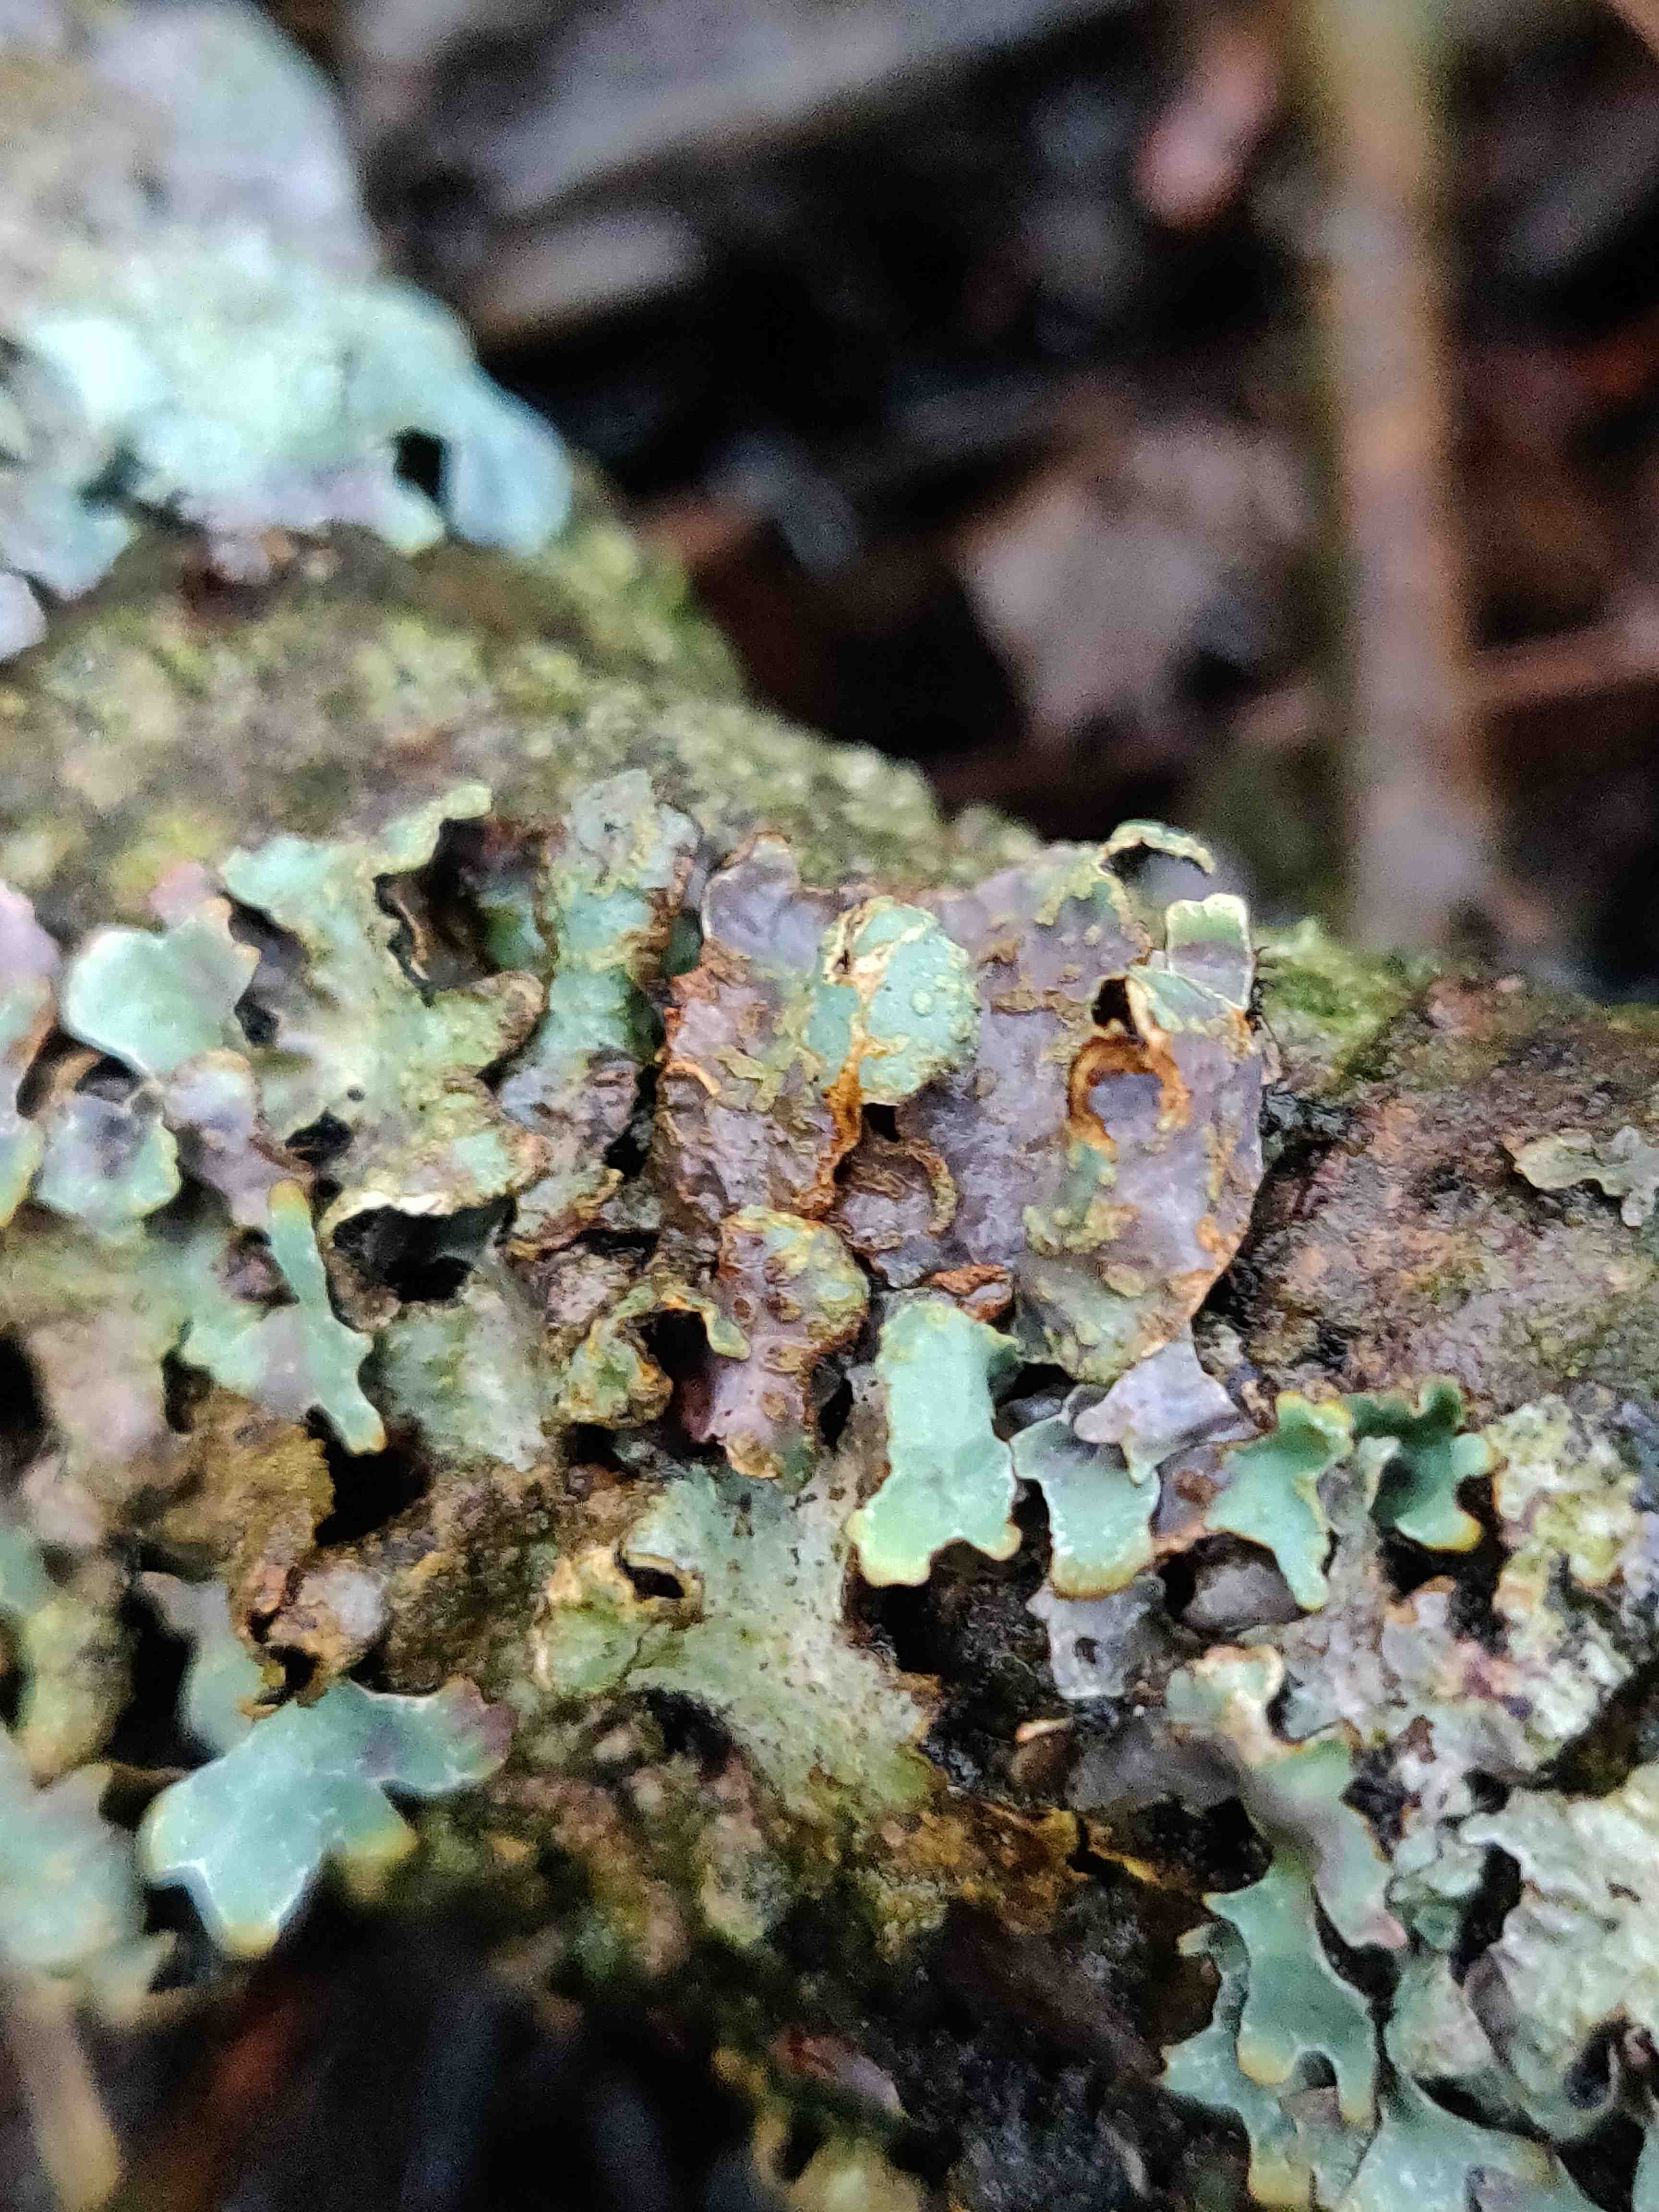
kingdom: Fungi
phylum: Ascomycota
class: Lecanoromycetes
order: Lecanorales
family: Parmeliaceae
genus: Parmelia
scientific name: Parmelia sulcata
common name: rynket skållav
